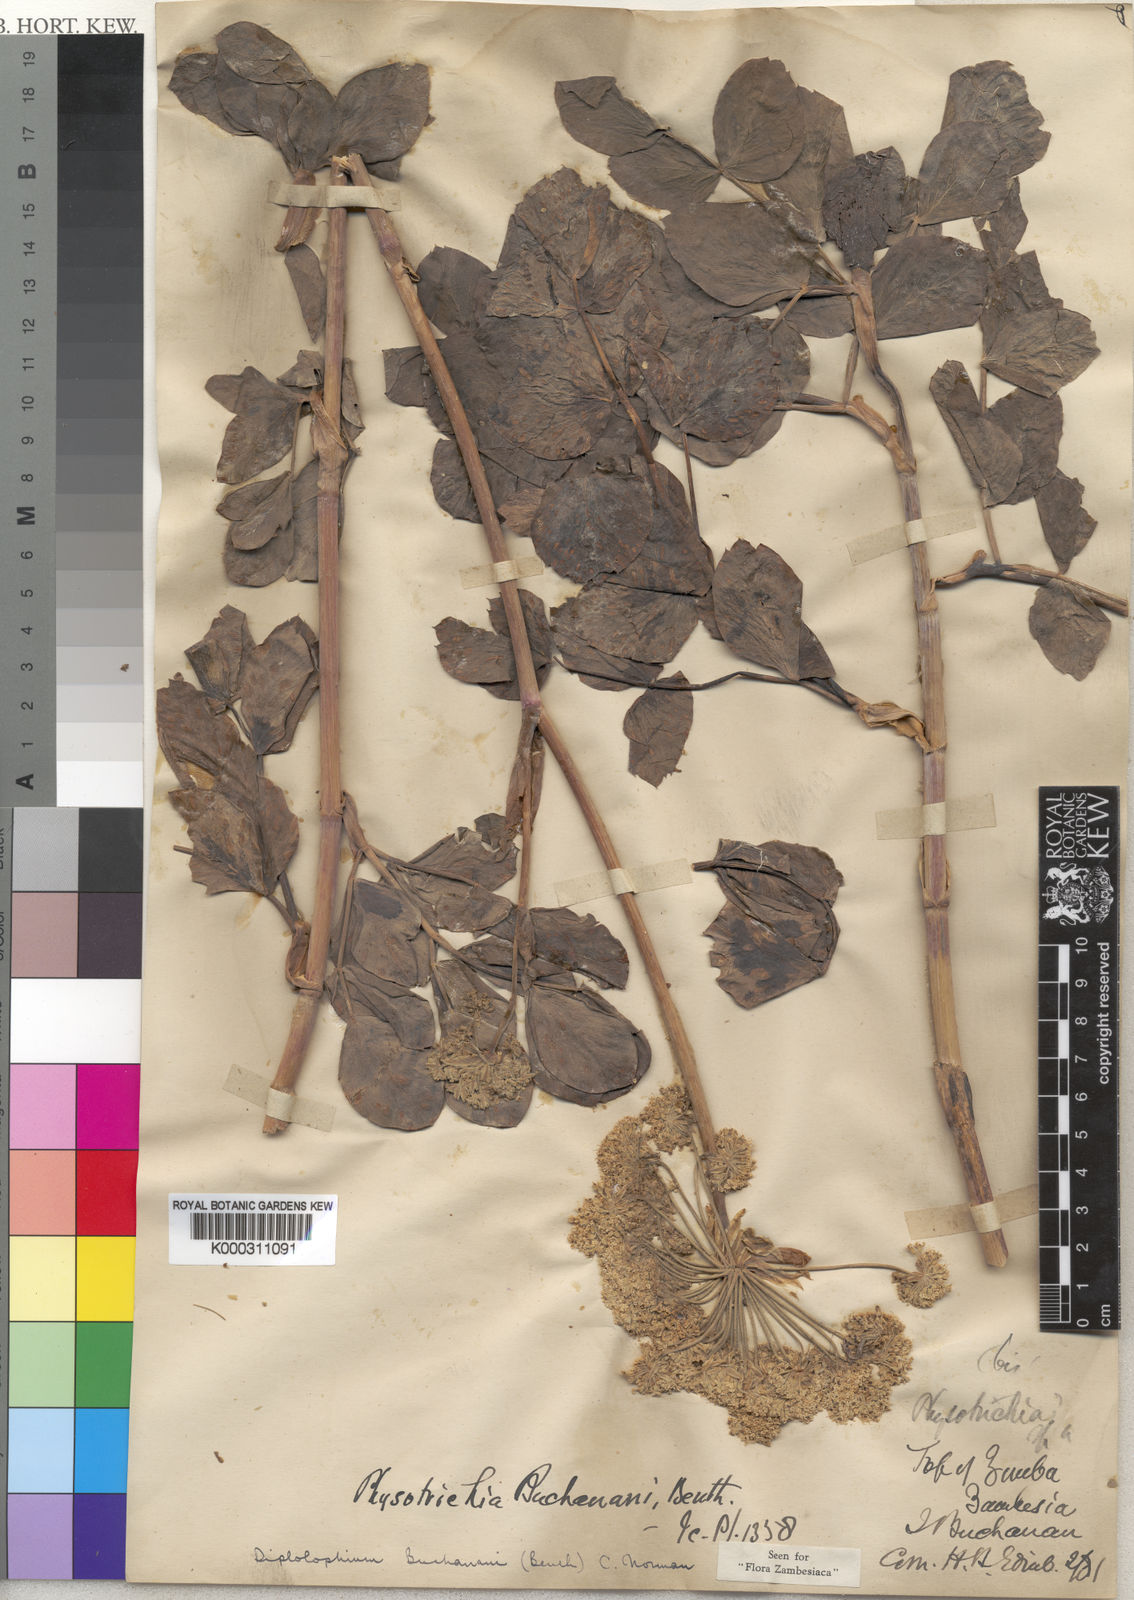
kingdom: Plantae
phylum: Tracheophyta
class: Magnoliopsida
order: Apiales
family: Apiaceae
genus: Diplolophium
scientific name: Diplolophium buchananii
